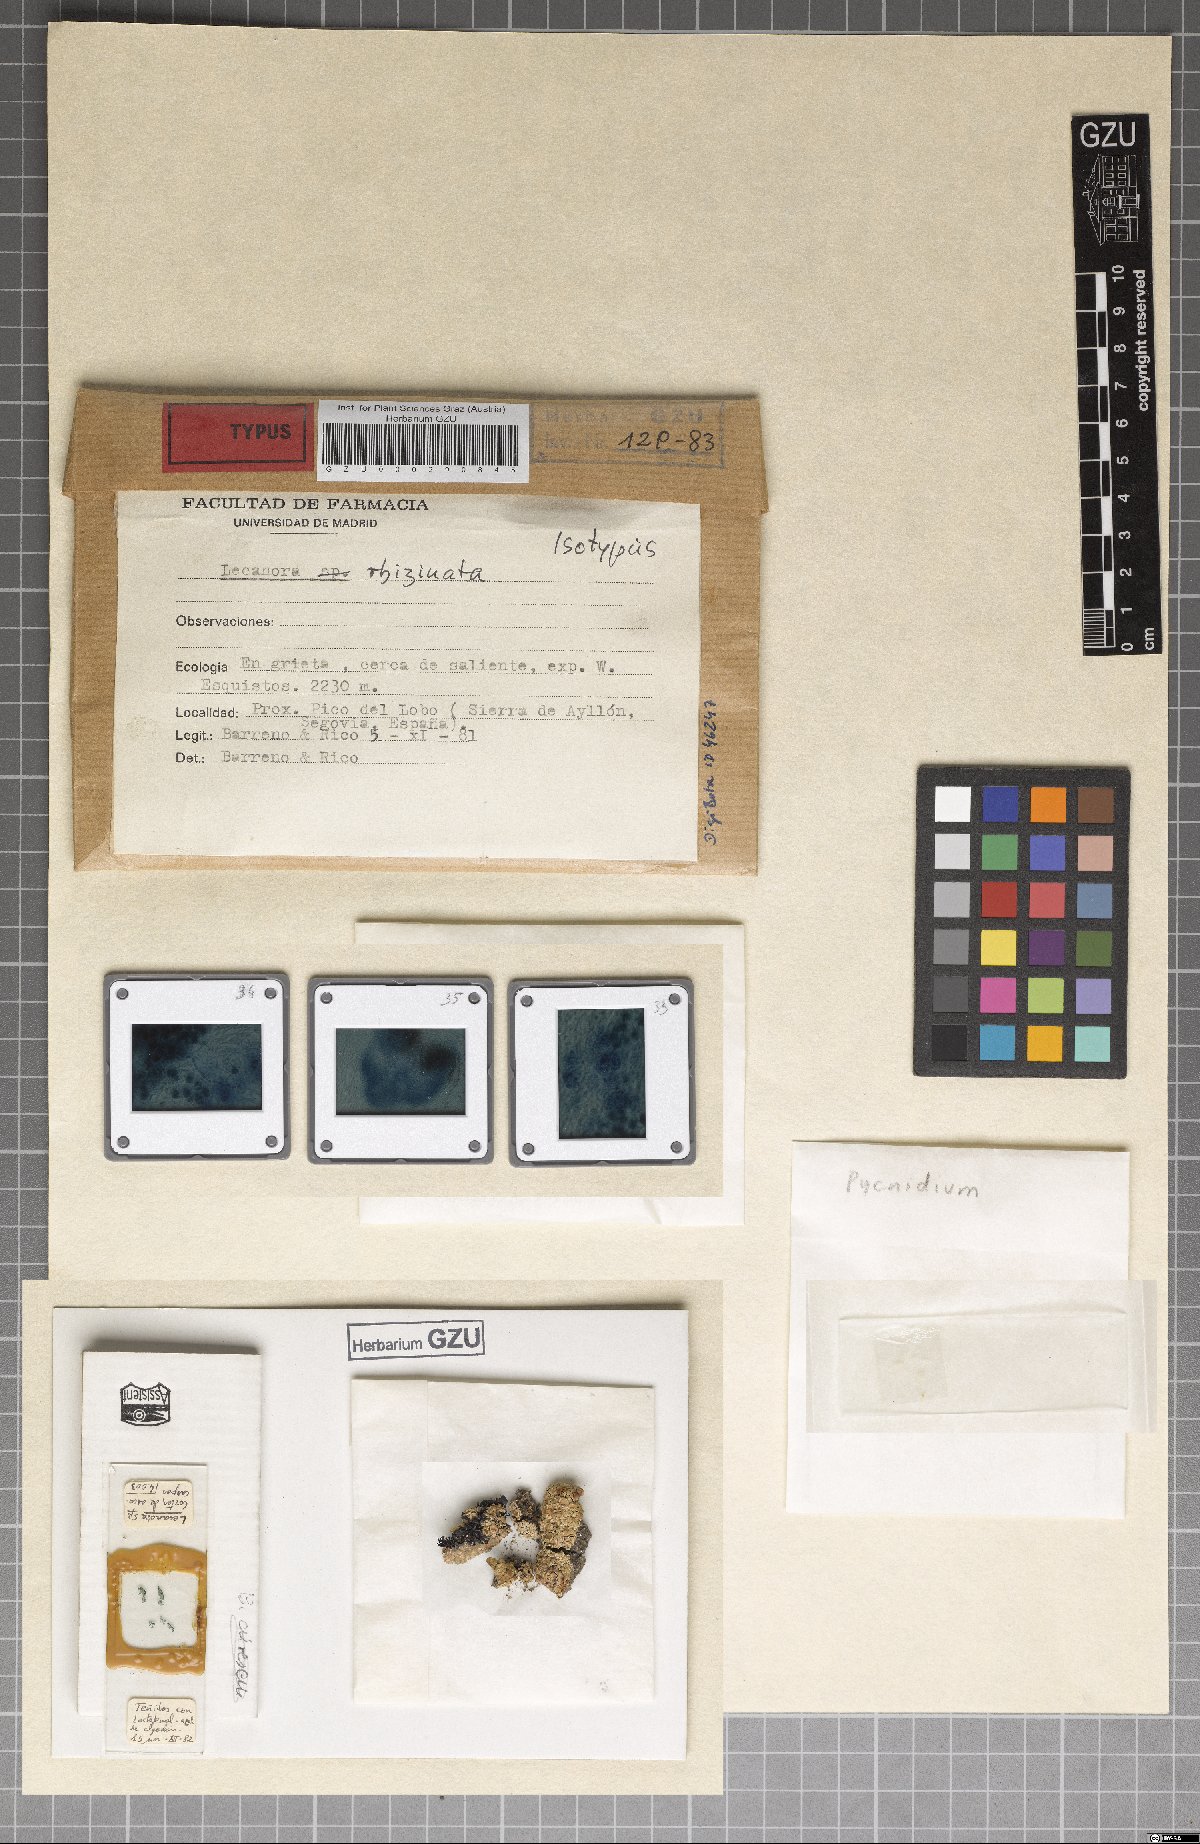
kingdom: Fungi
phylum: Ascomycota
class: Lecanoromycetes
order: Lecanorales
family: Lecanoraceae
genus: Lecanora
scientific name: Lecanora rhizinata
